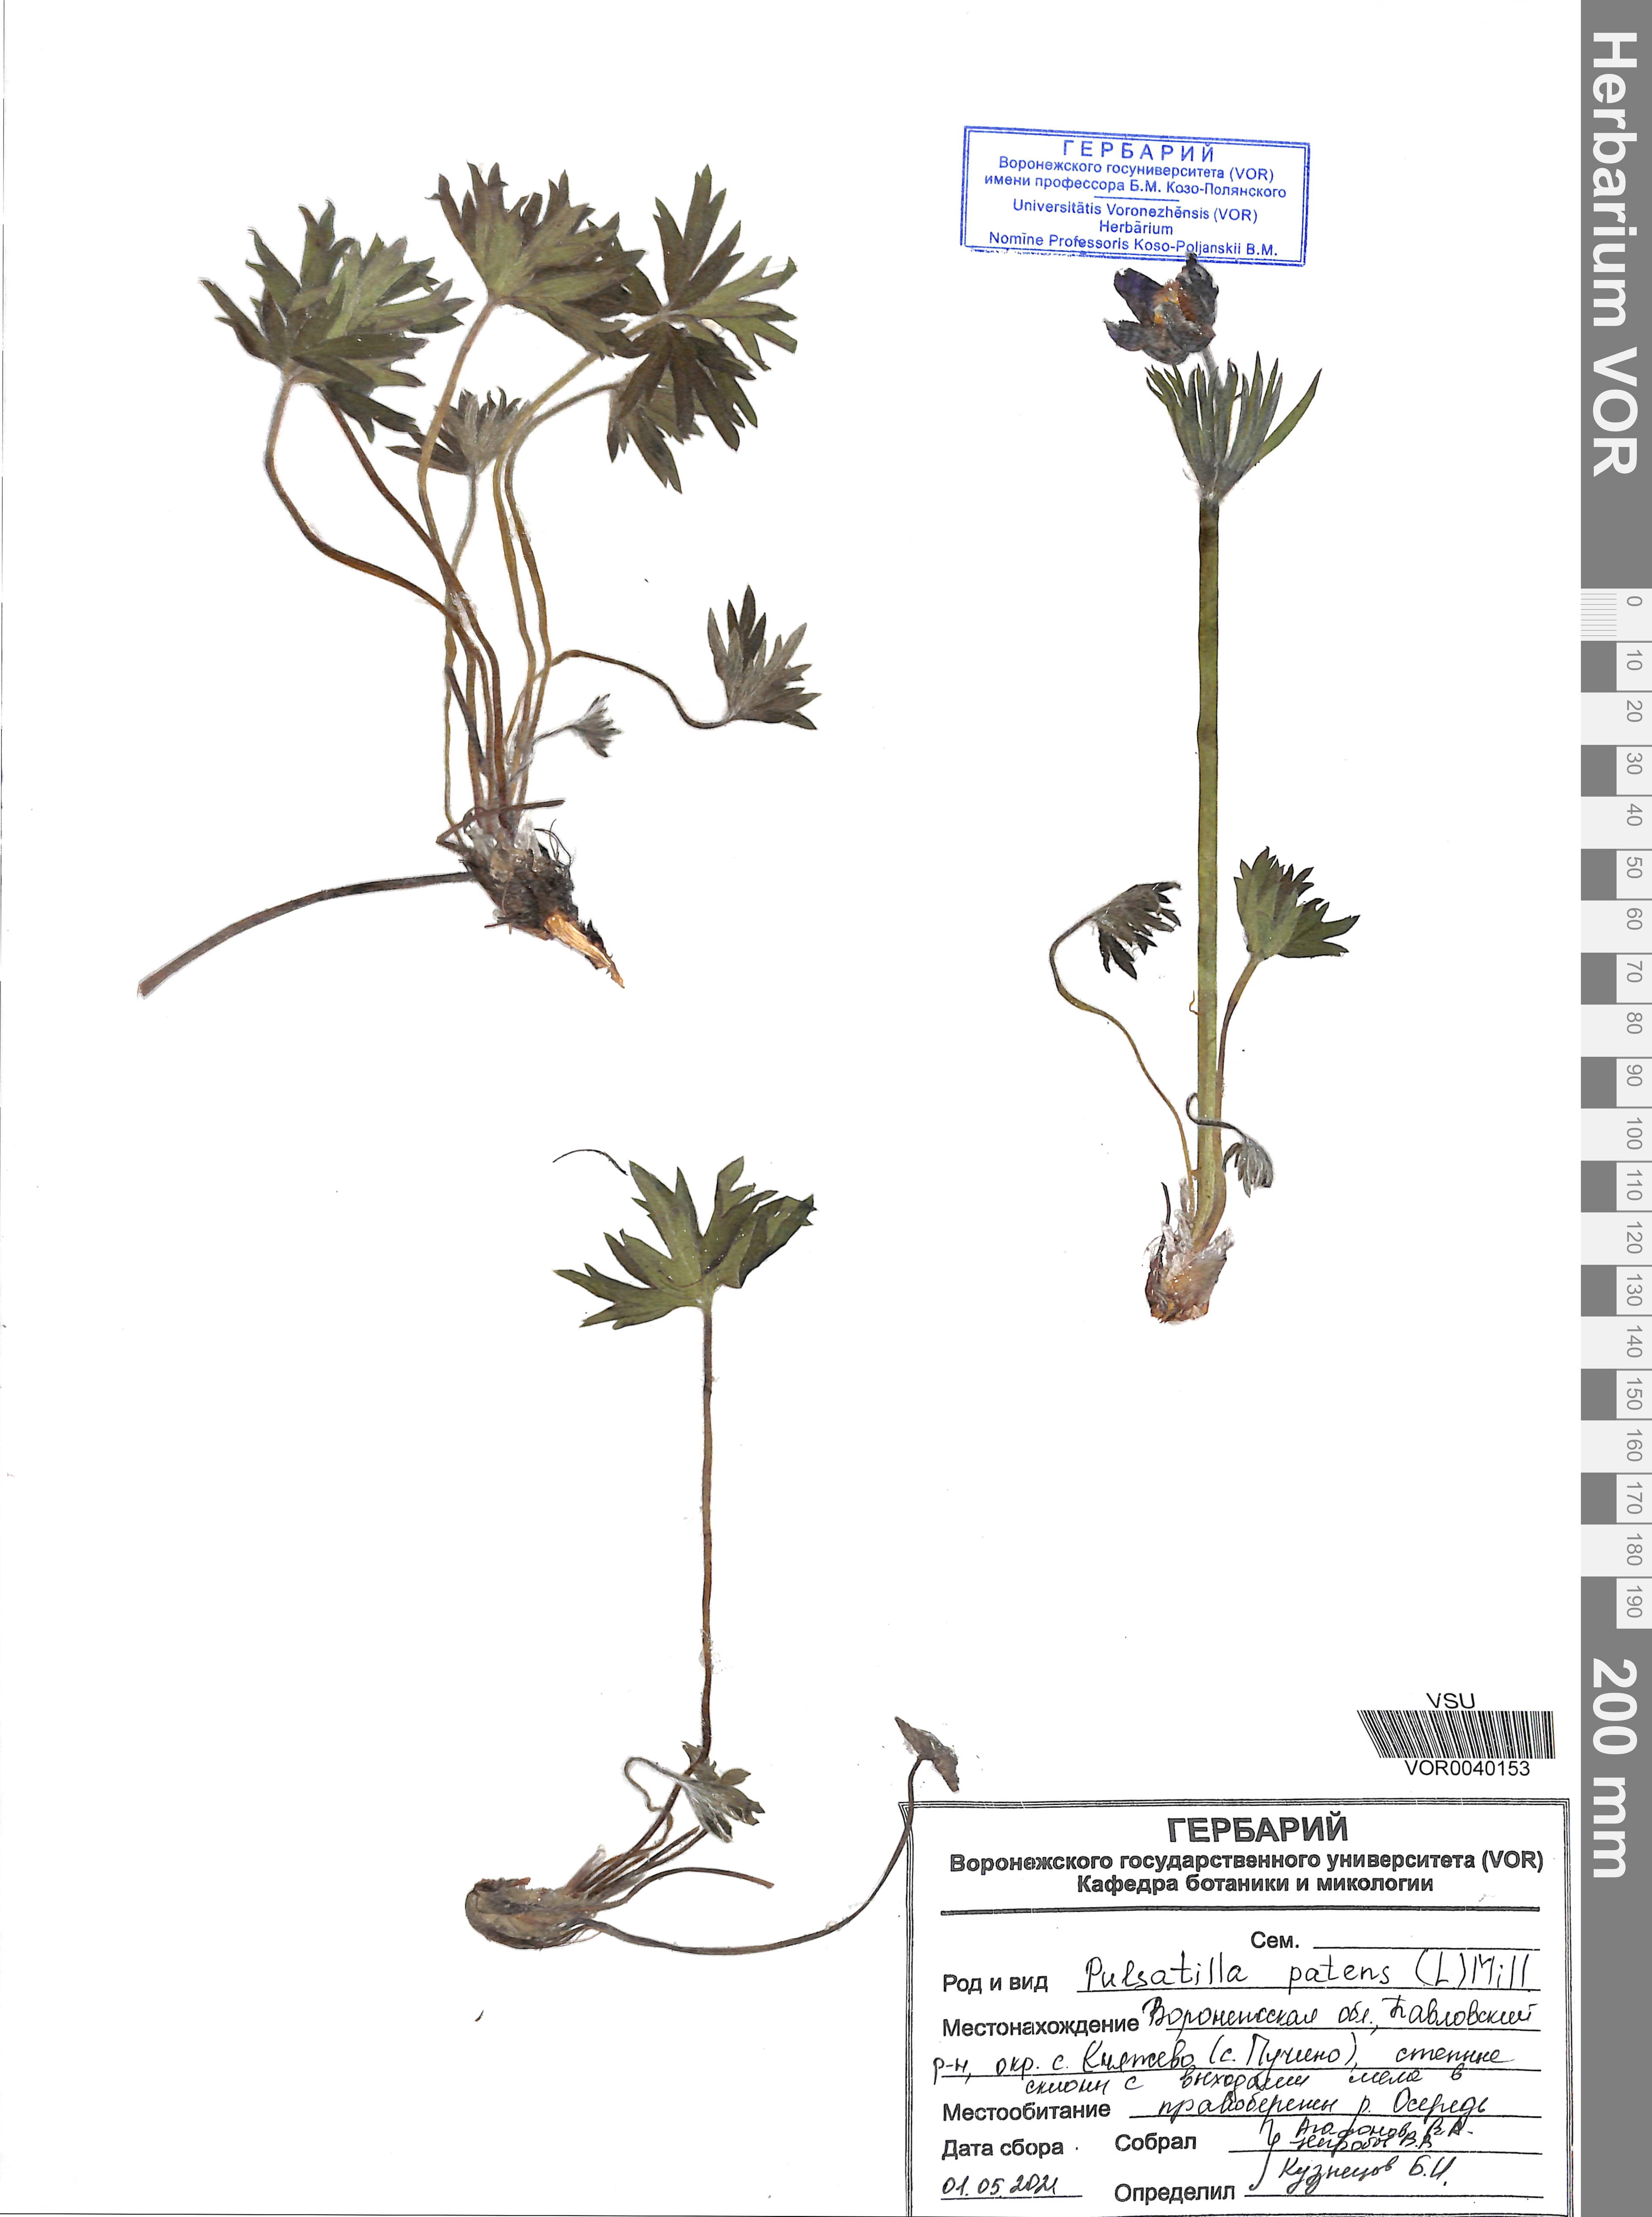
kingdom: Plantae
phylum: Tracheophyta
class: Magnoliopsida
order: Ranunculales
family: Ranunculaceae
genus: Pulsatilla
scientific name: Pulsatilla patens
